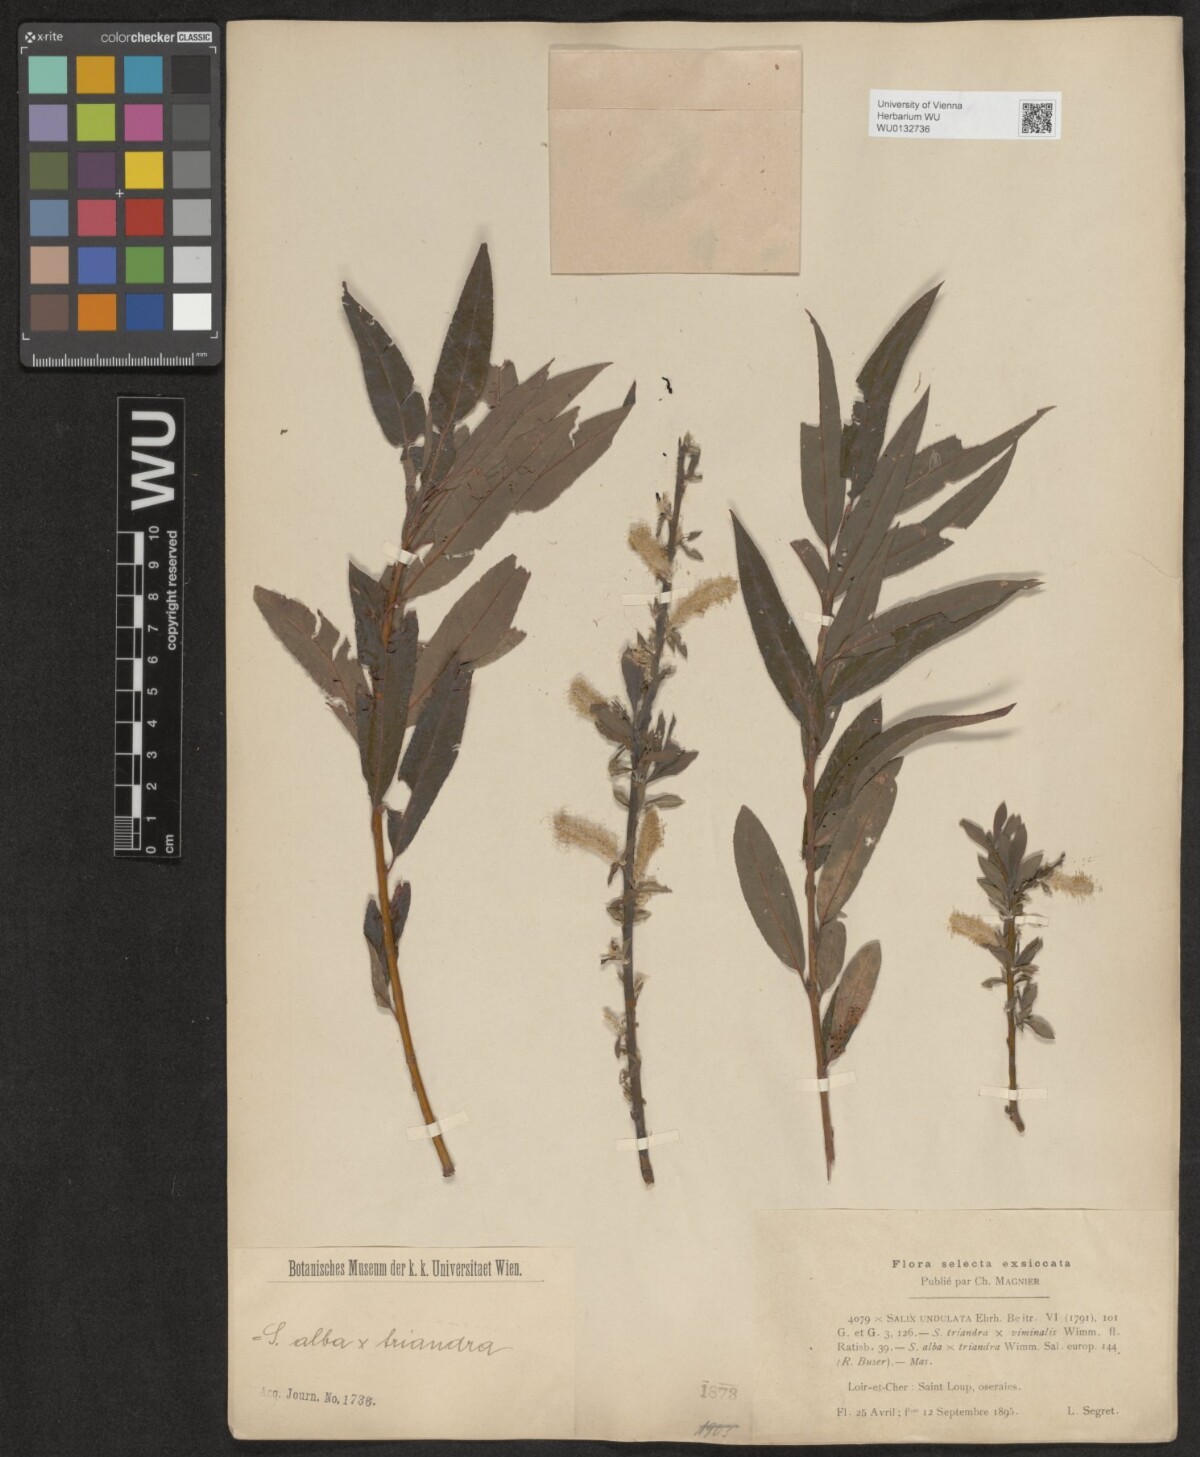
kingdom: Plantae
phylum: Tracheophyta
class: Magnoliopsida
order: Malpighiales
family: Salicaceae
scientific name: Salicaceae
